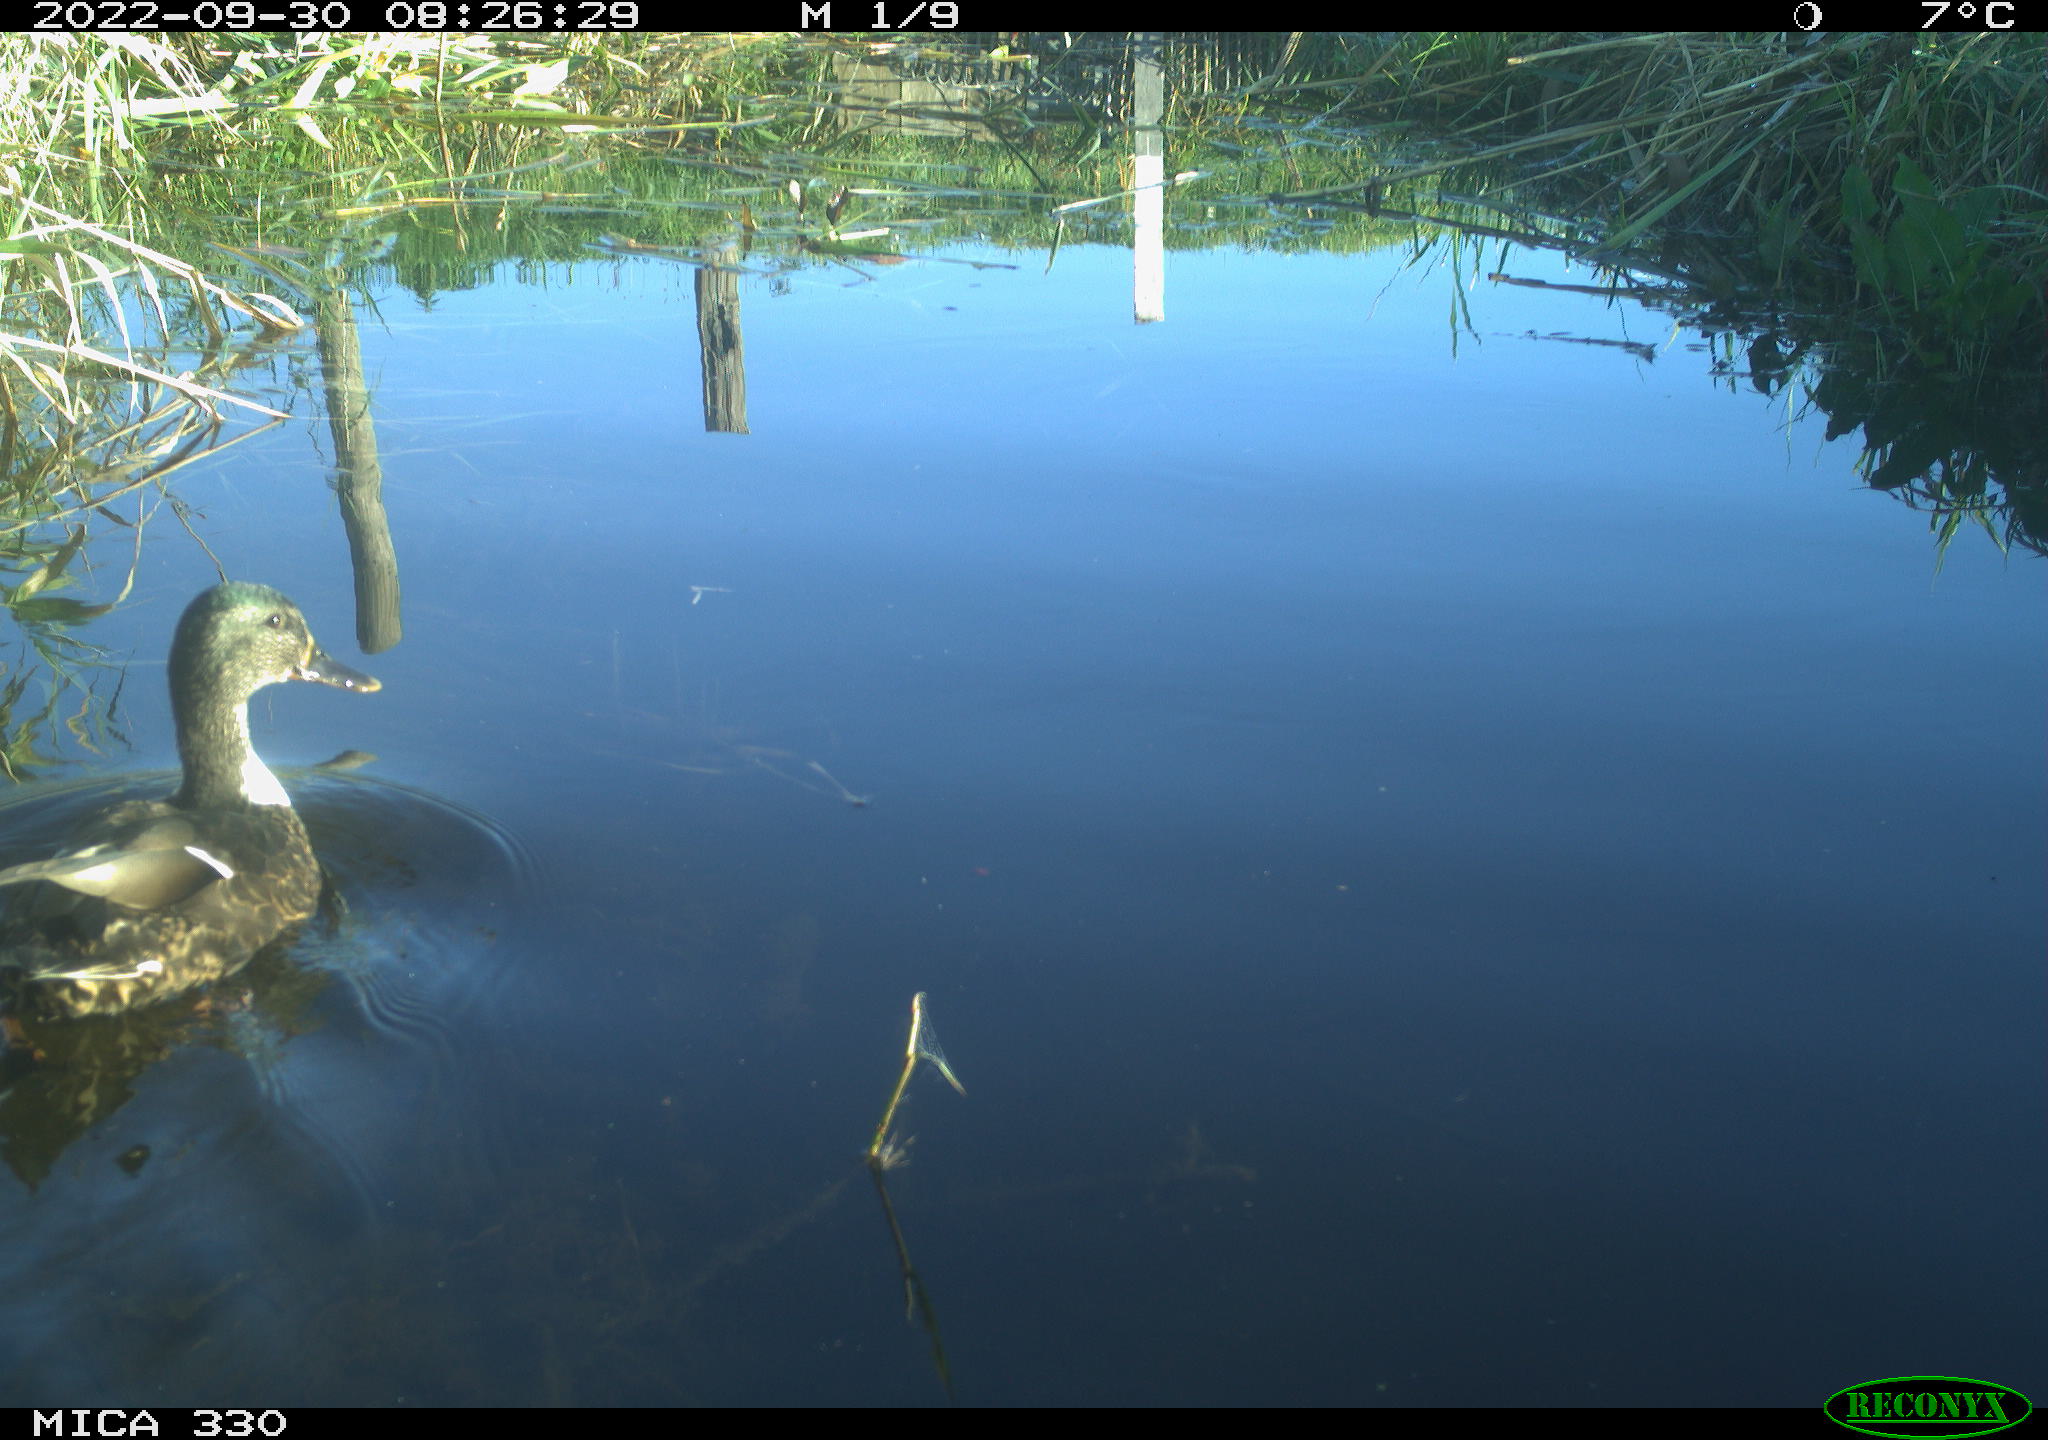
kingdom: Animalia
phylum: Chordata
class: Aves
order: Anseriformes
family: Anatidae
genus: Anas
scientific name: Anas platyrhynchos
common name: Mallard
